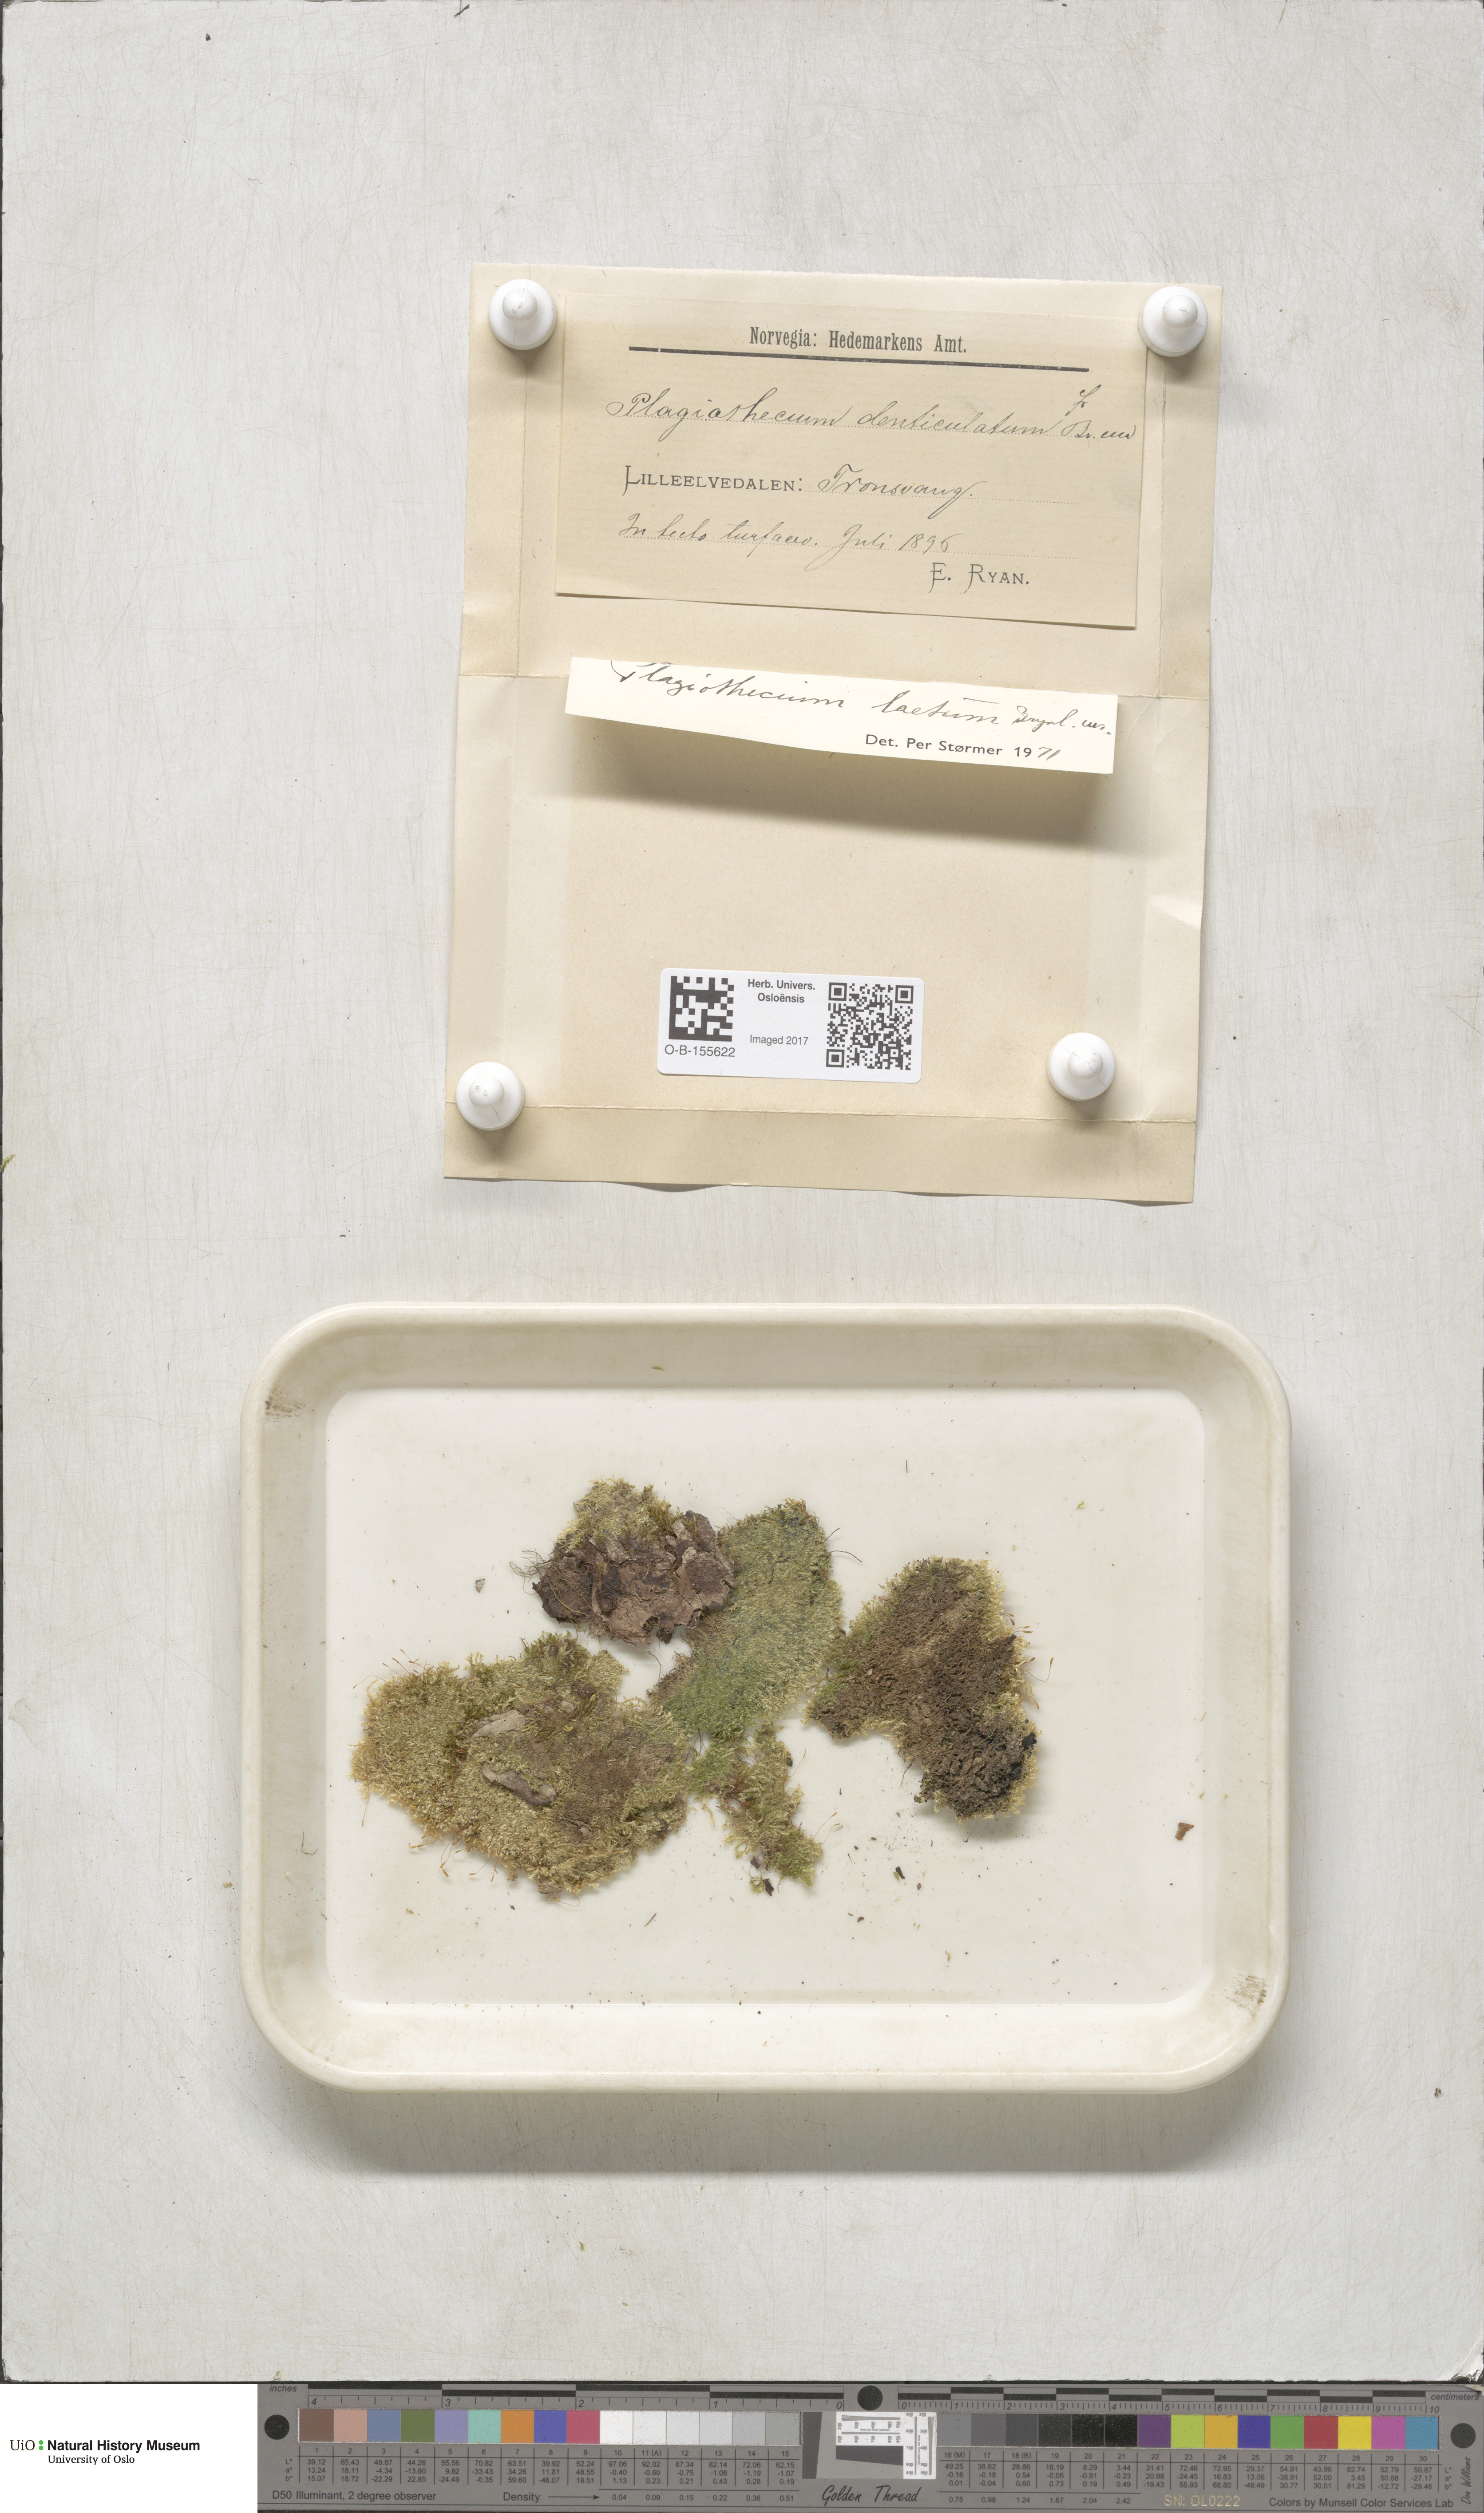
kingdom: Plantae
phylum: Bryophyta
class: Bryopsida
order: Hypnales
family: Plagiotheciaceae
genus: Plagiothecium
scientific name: Plagiothecium laetum
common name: Bright silk moss
